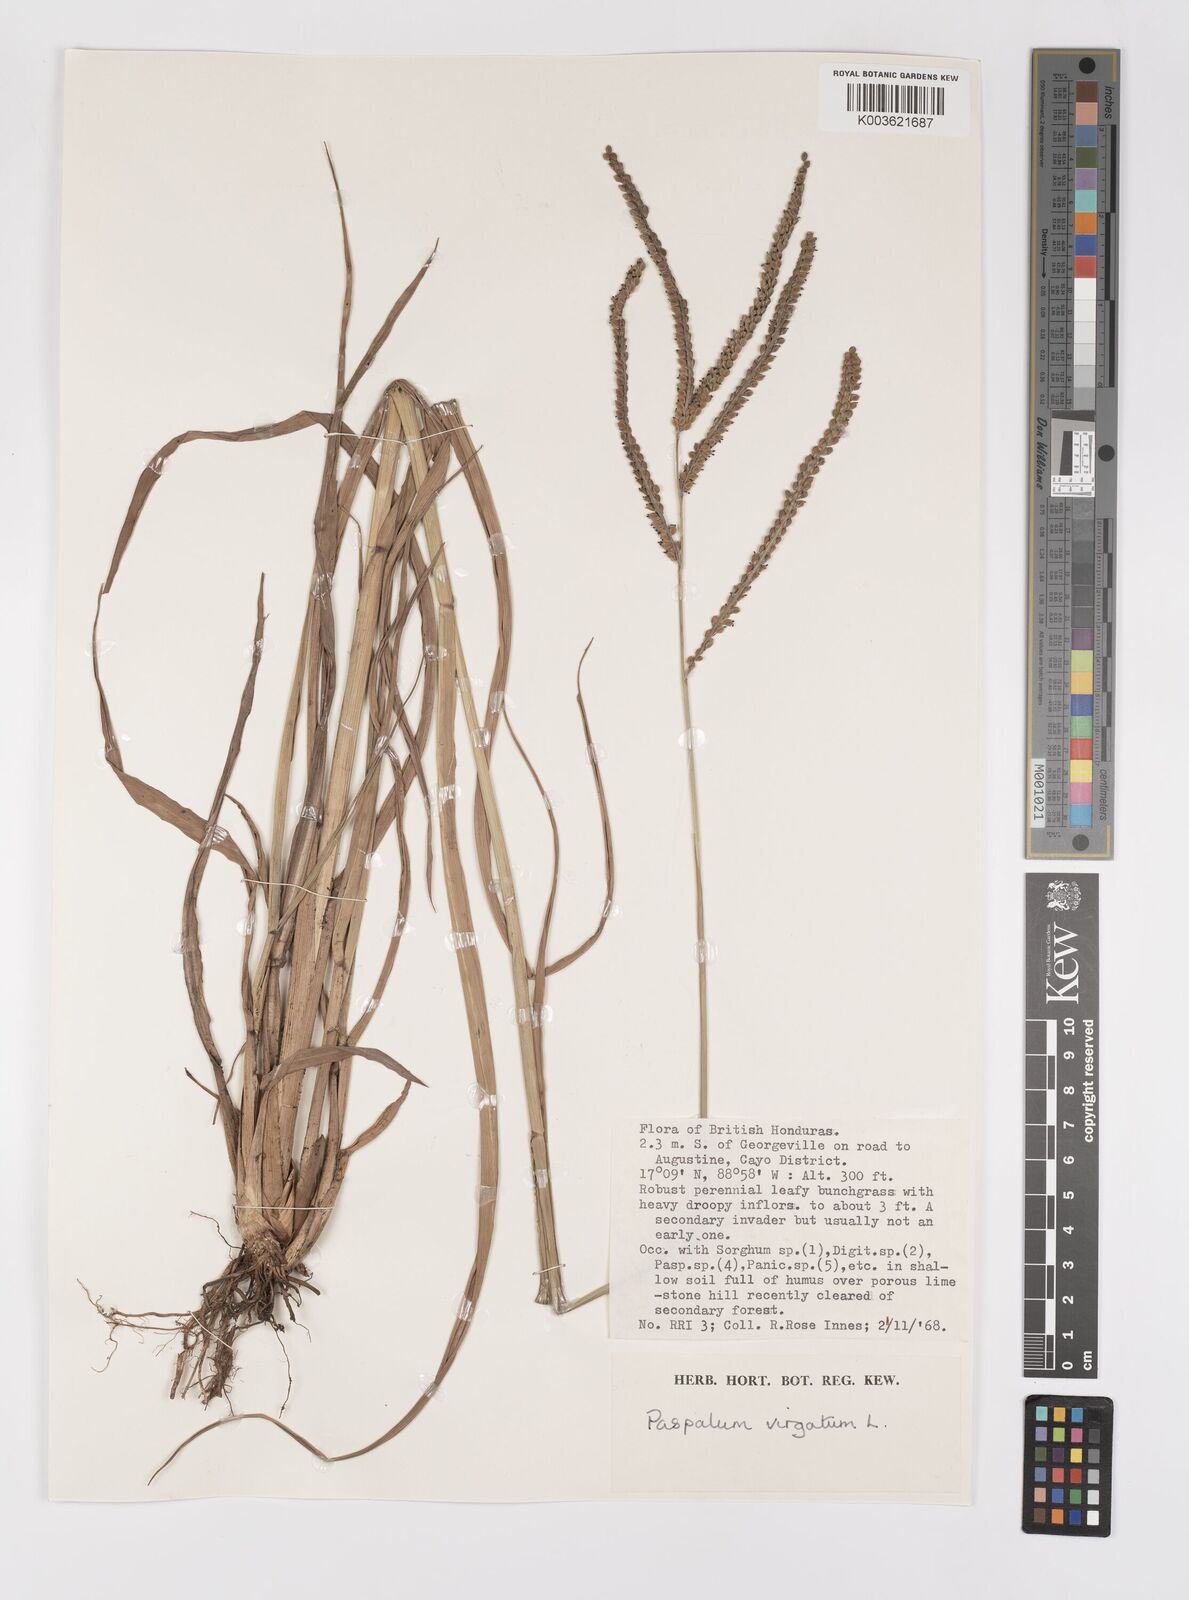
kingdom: Plantae
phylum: Tracheophyta
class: Liliopsida
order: Poales
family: Poaceae
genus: Paspalum
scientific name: Paspalum virgatum
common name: Talquezal
